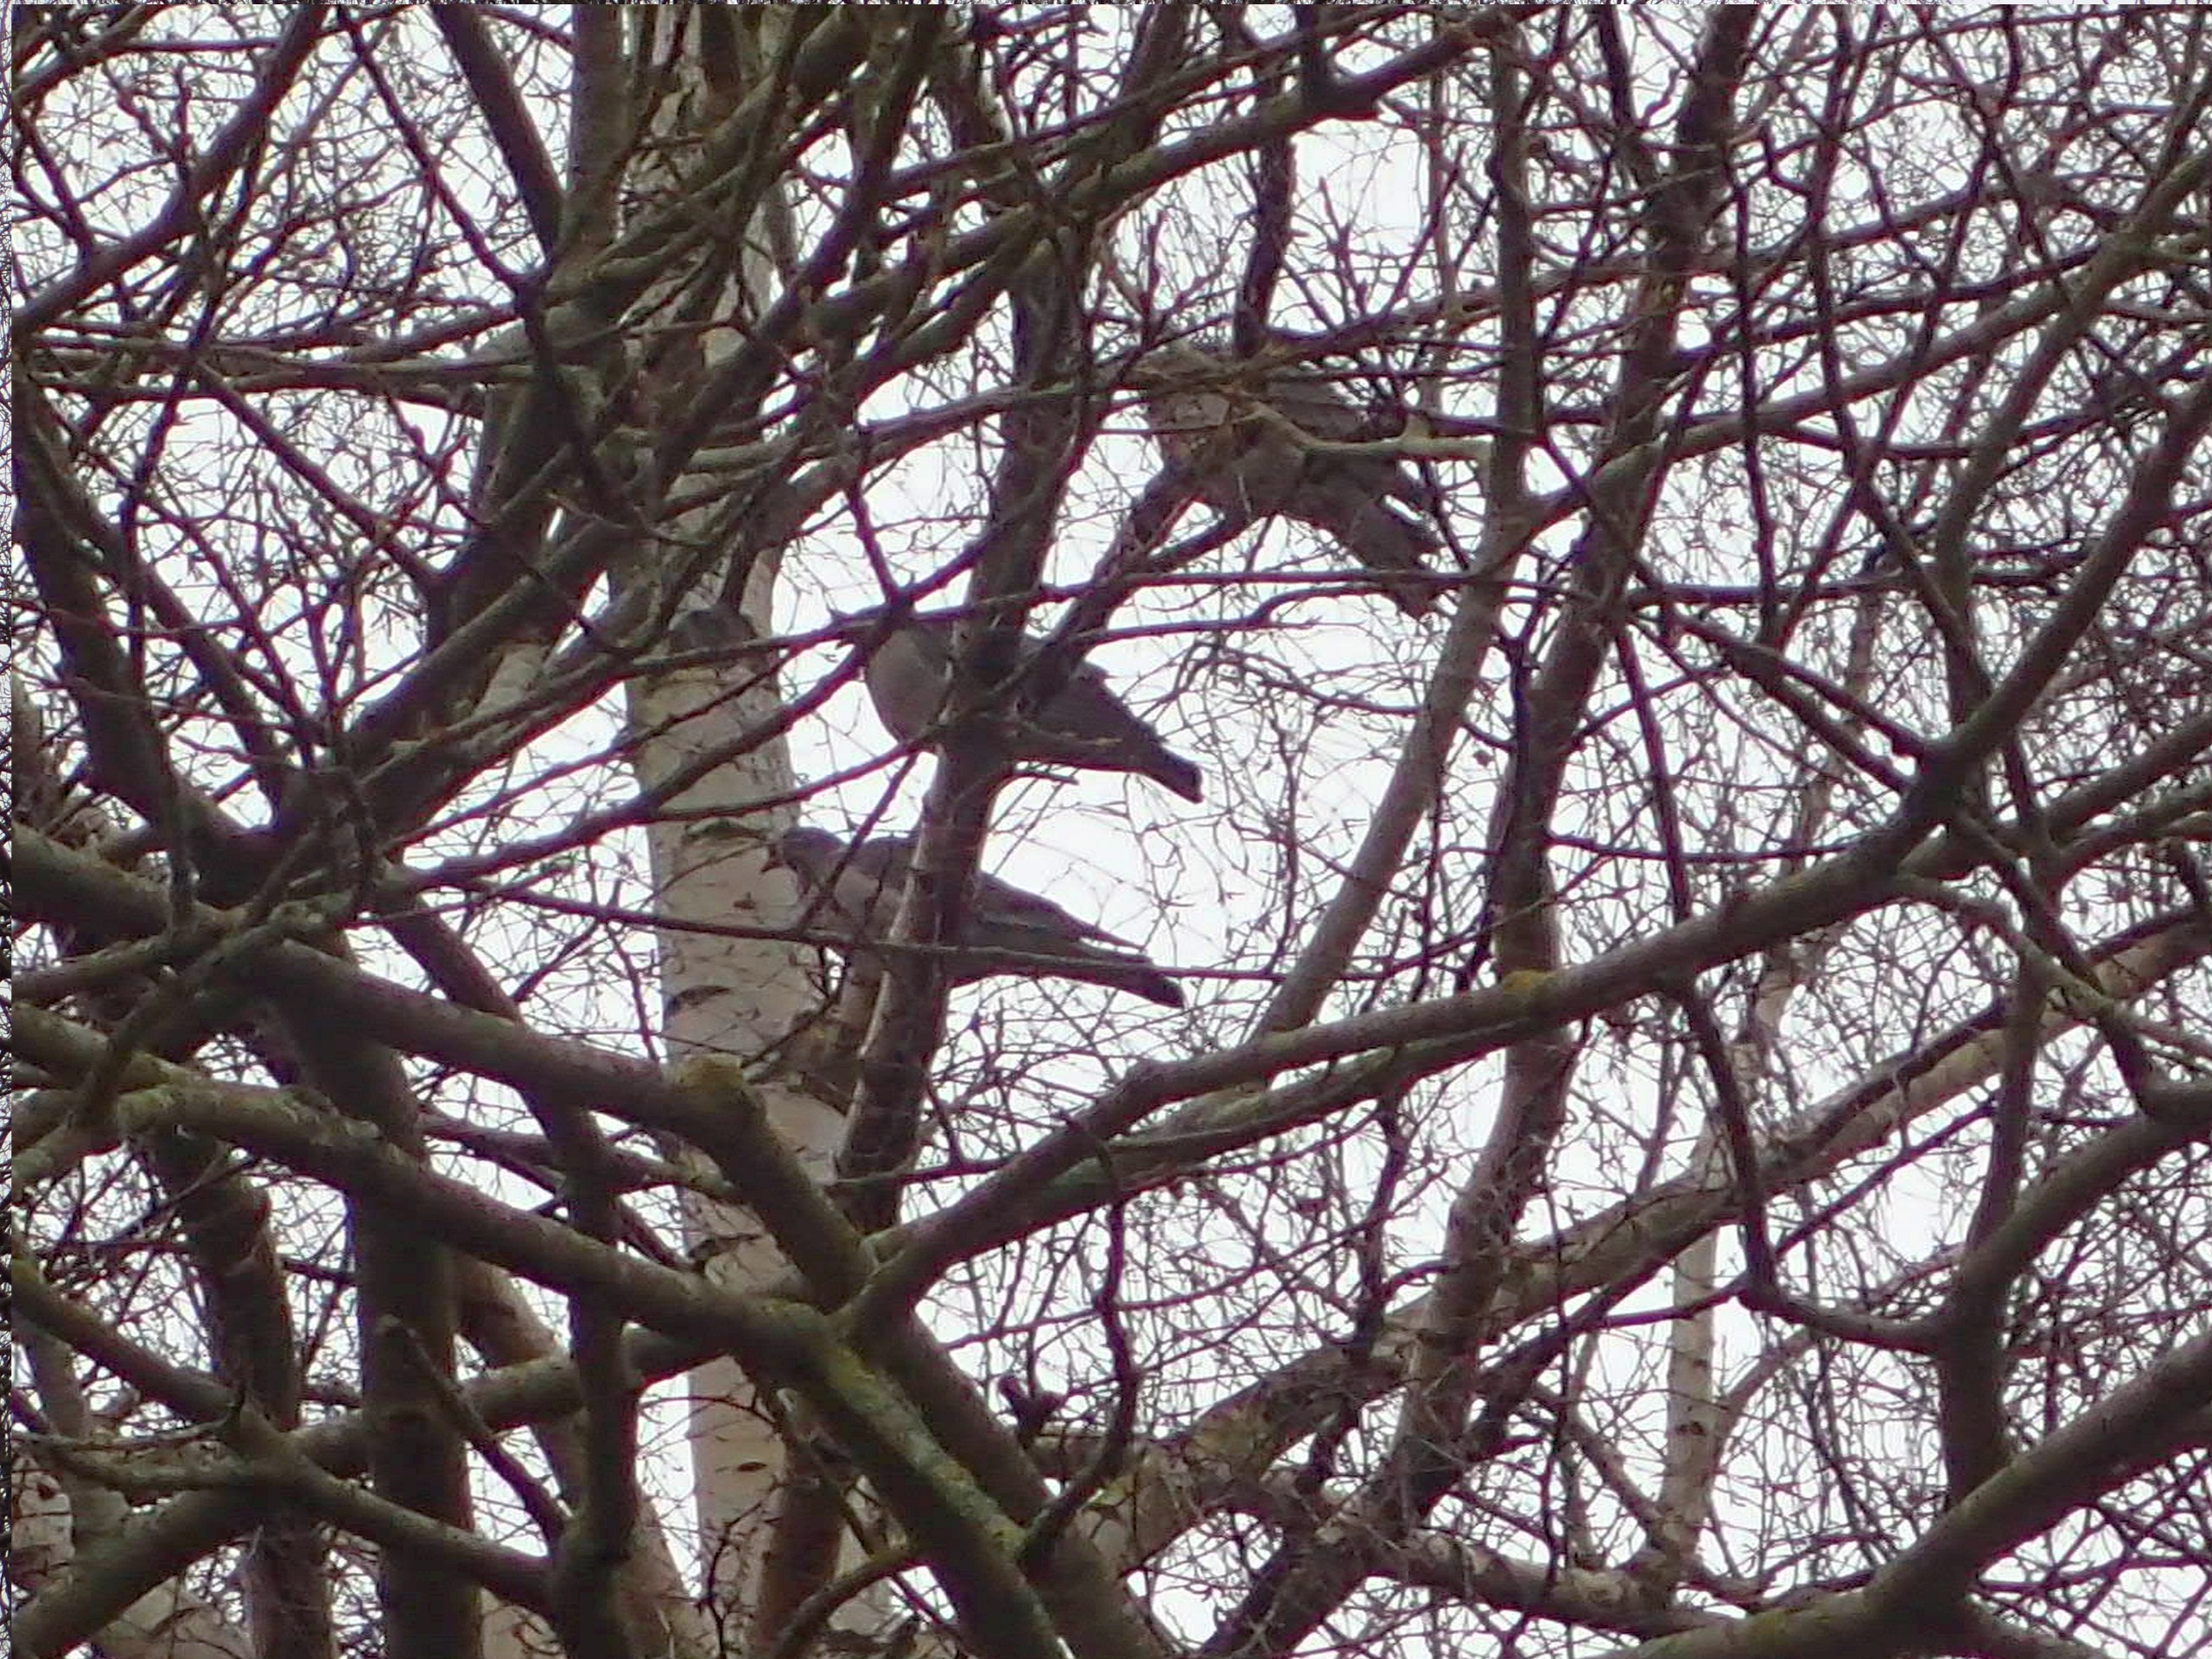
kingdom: Animalia
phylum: Chordata
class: Aves
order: Columbiformes
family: Columbidae
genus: Columba
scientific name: Columba palumbus
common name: Ringdue
